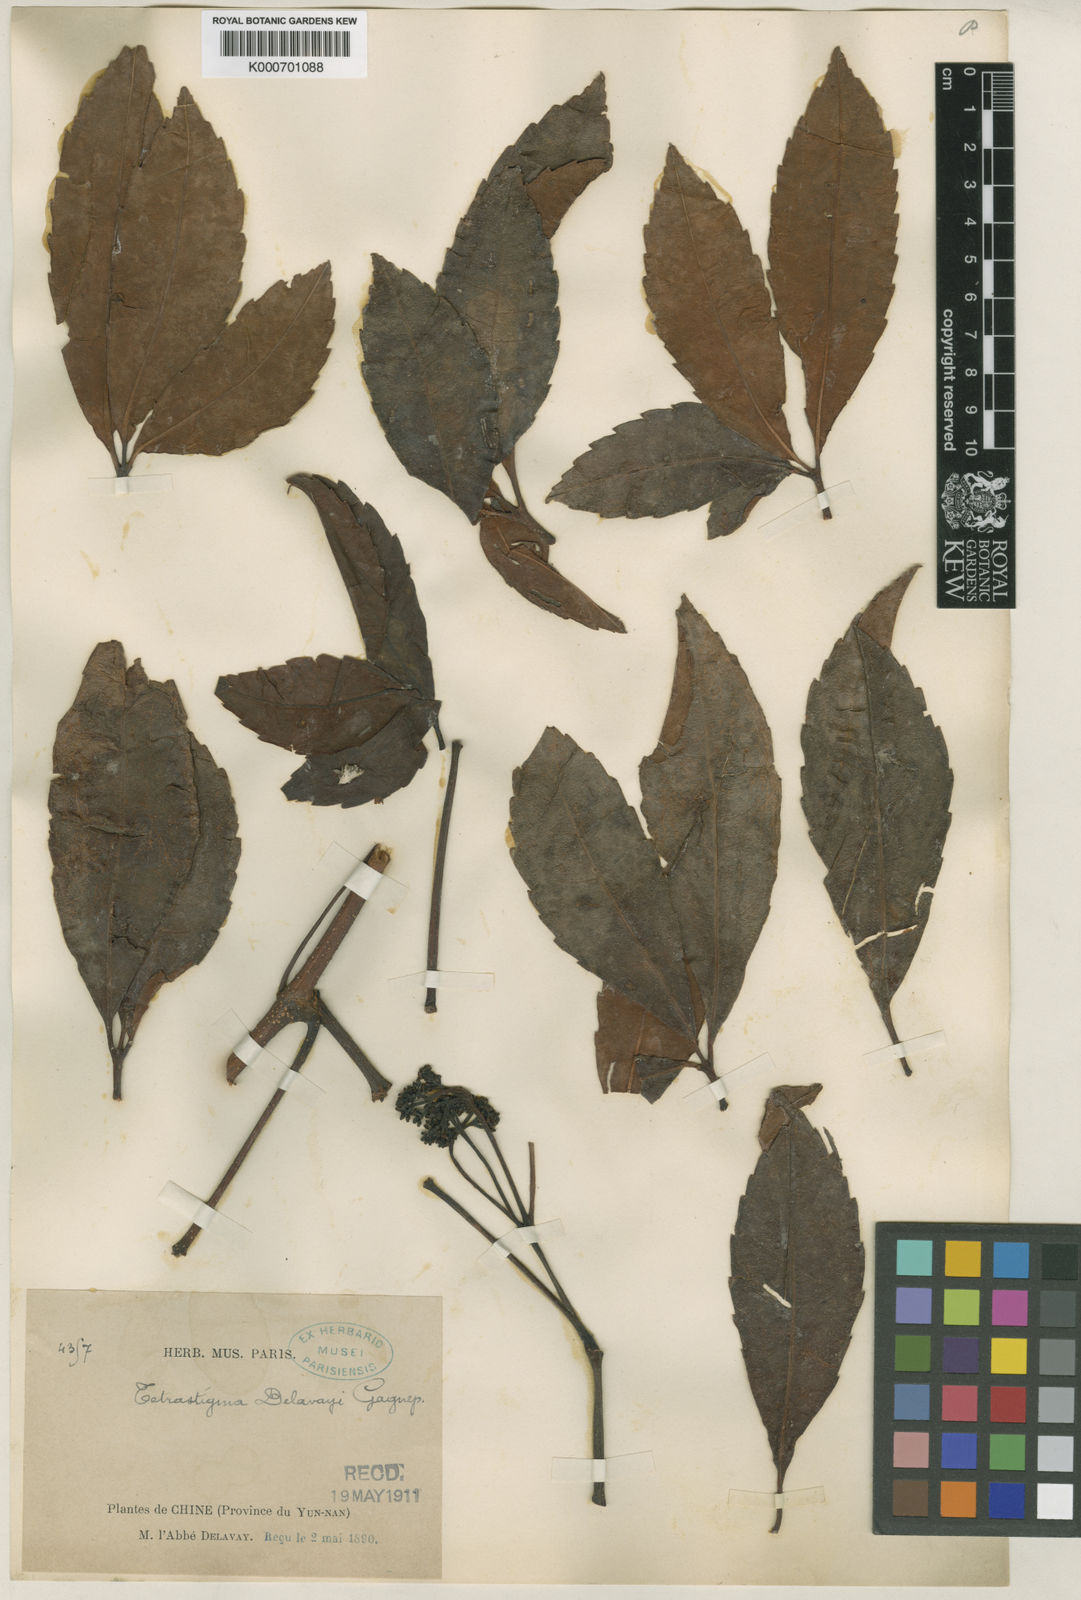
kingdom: Plantae
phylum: Tracheophyta
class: Magnoliopsida
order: Vitales
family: Vitaceae
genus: Tetrastigma
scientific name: Tetrastigma delavayi
